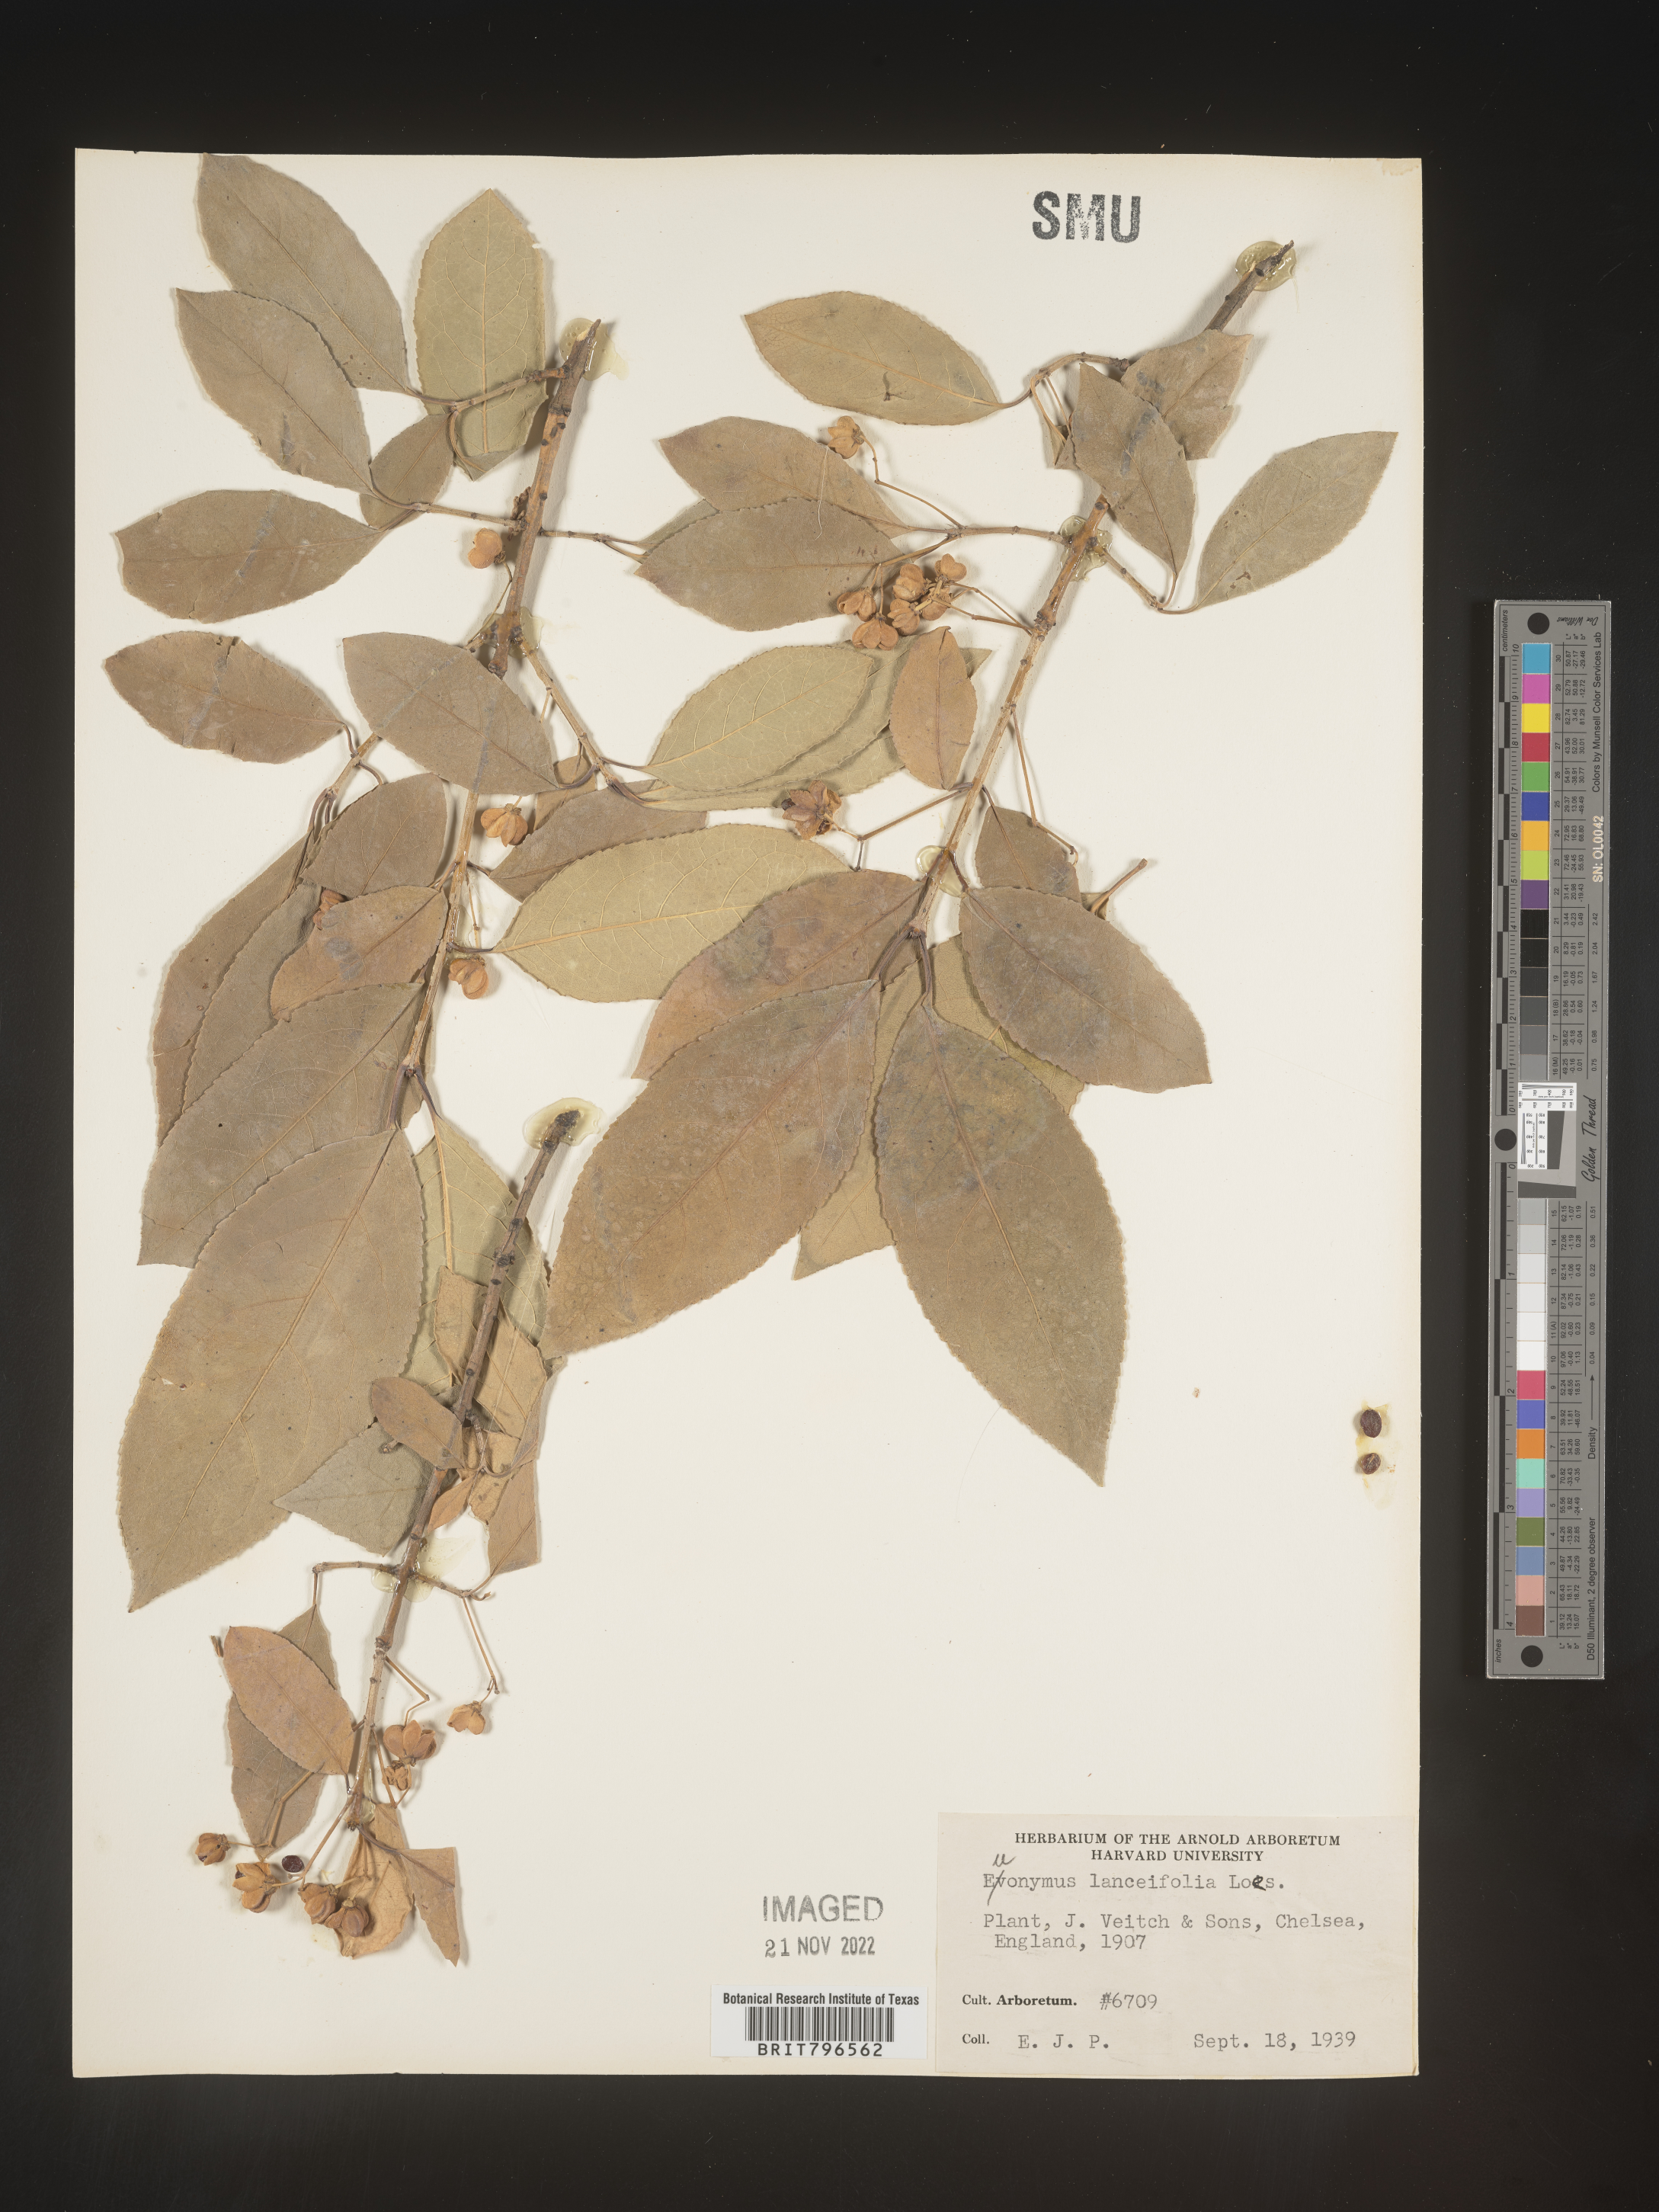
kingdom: Plantae
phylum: Tracheophyta
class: Magnoliopsida
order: Celastrales
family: Celastraceae
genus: Euonymus
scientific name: Euonymus
